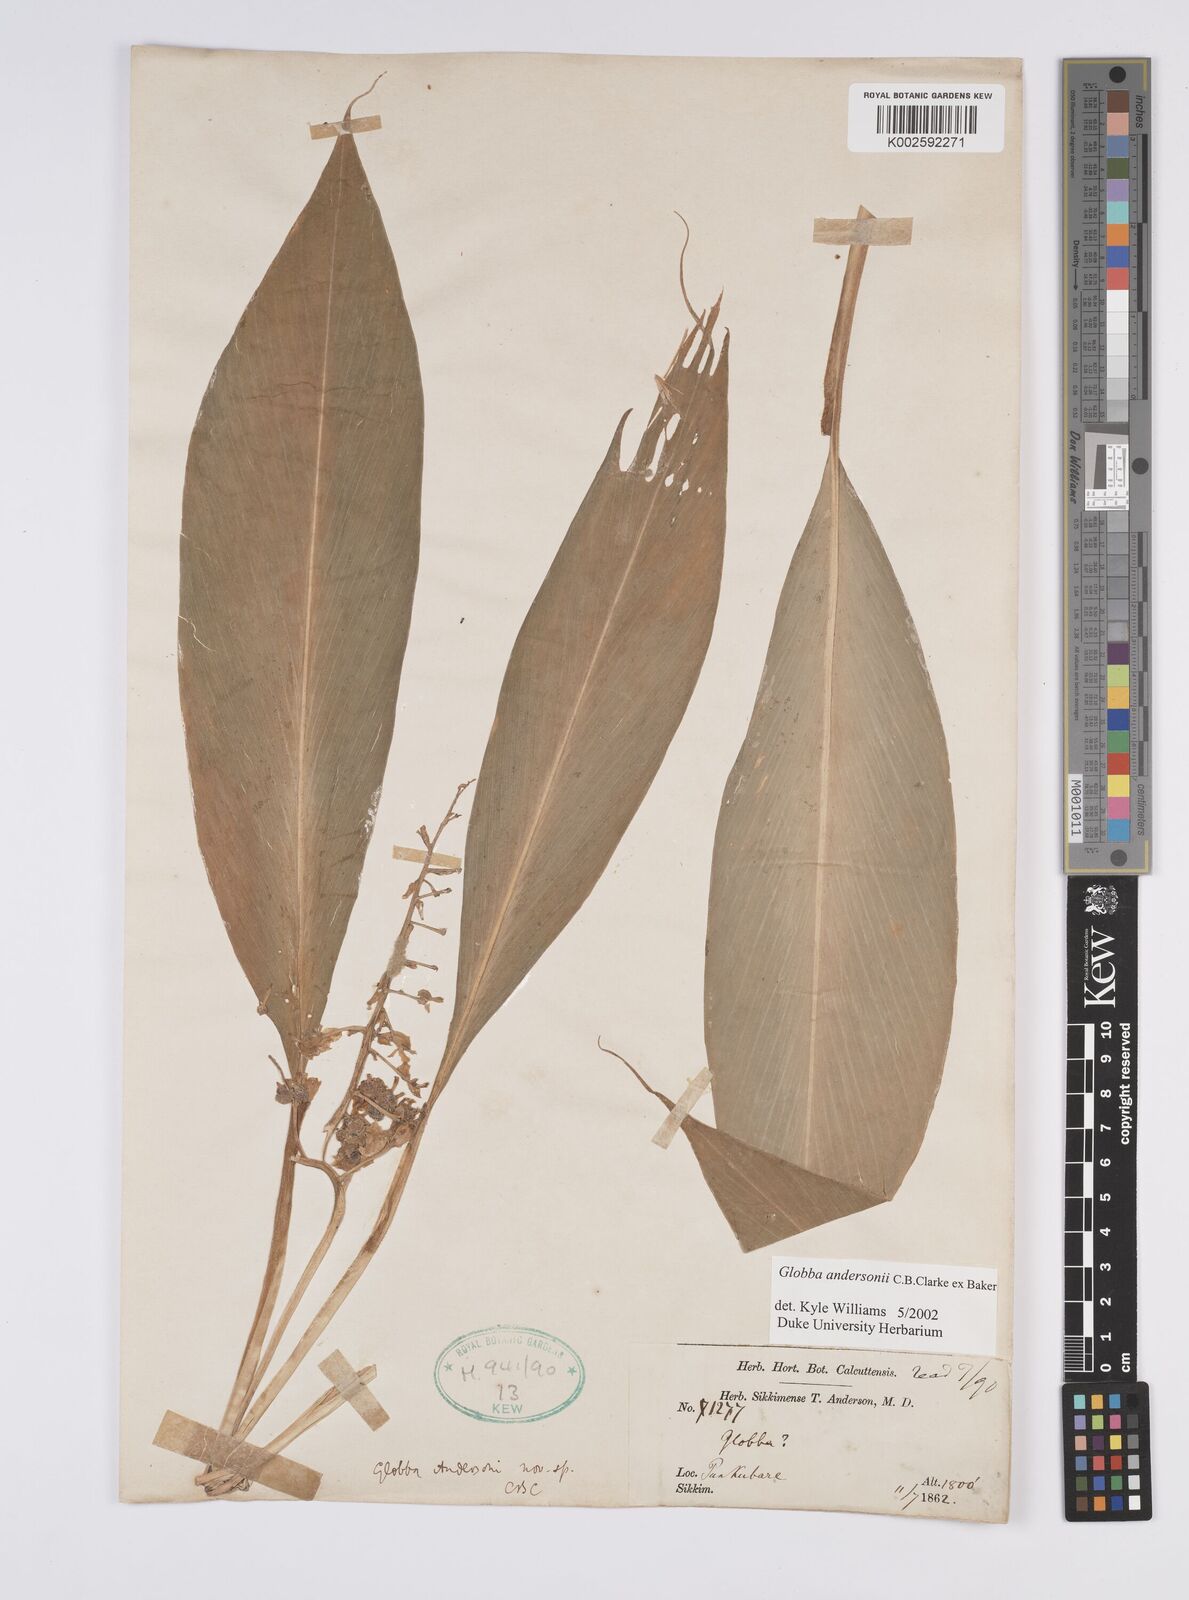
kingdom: Plantae
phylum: Tracheophyta
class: Liliopsida
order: Zingiberales
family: Zingiberaceae
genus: Globba
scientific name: Globba andersonii
